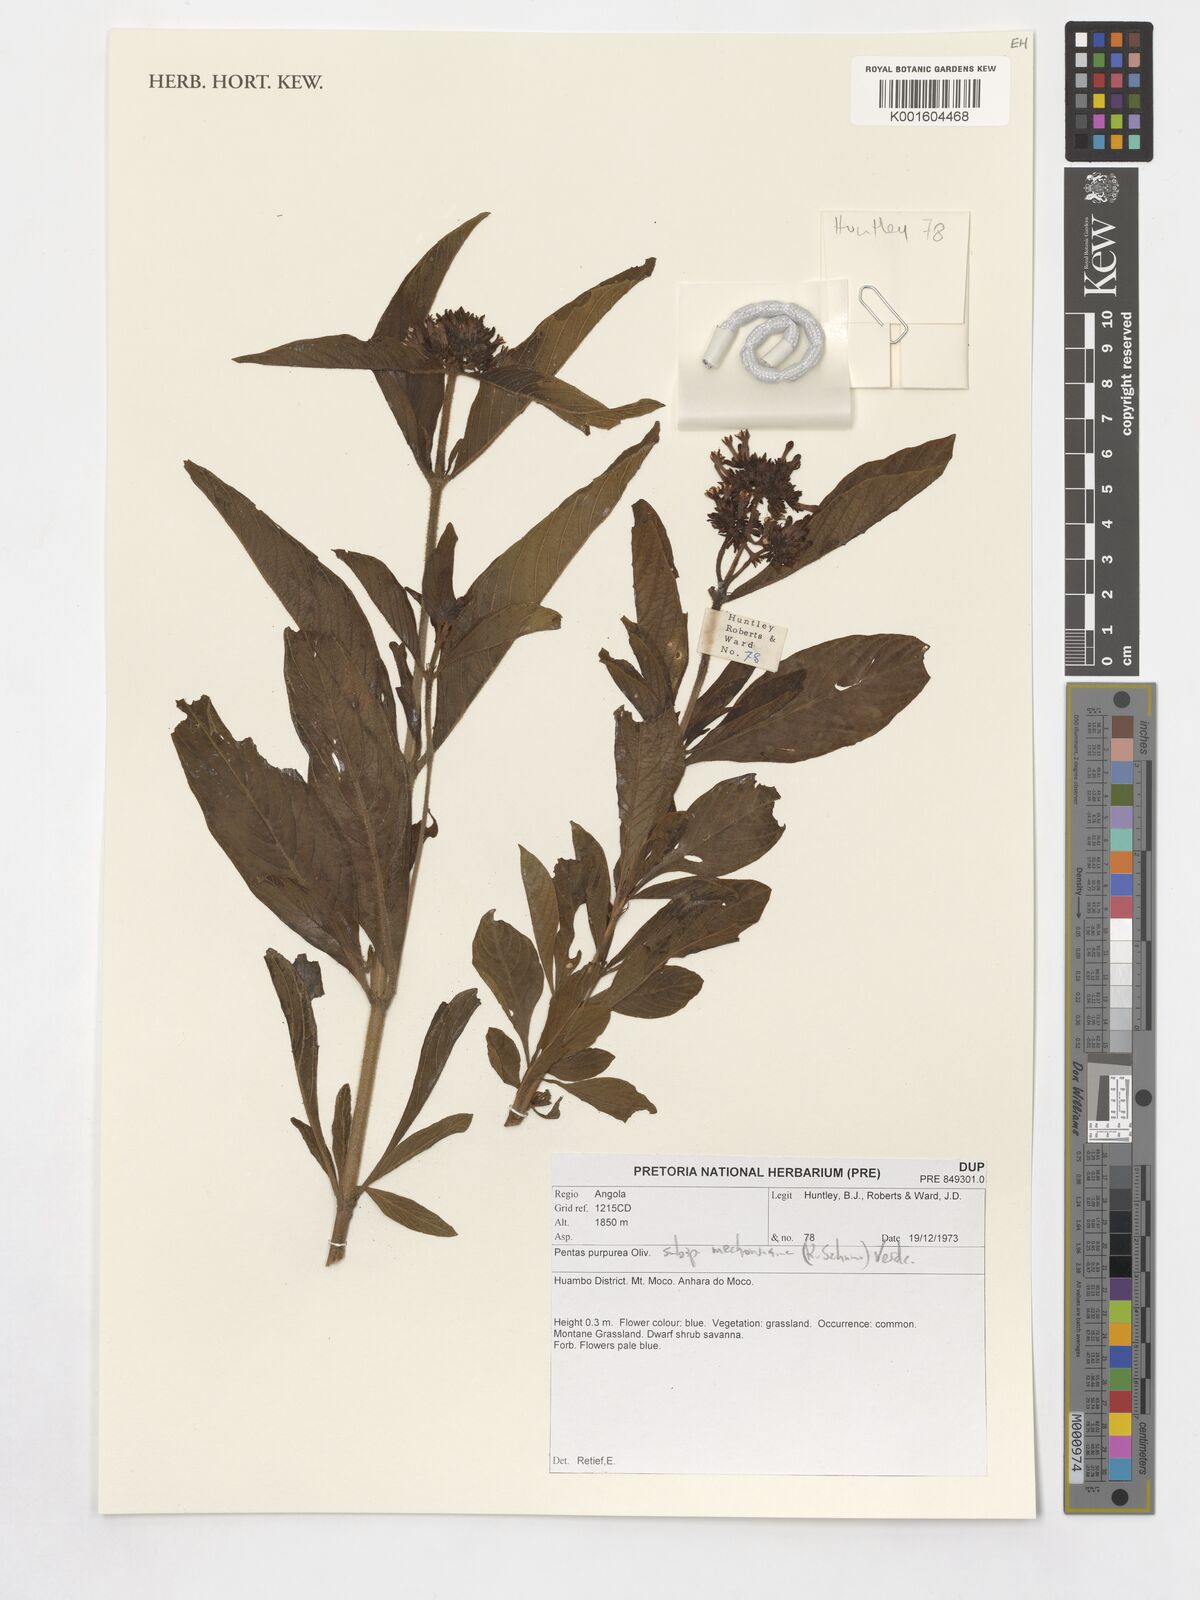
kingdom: Plantae
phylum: Tracheophyta
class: Magnoliopsida
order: Gentianales
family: Rubiaceae
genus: Pentas
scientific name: Pentas purpurea
